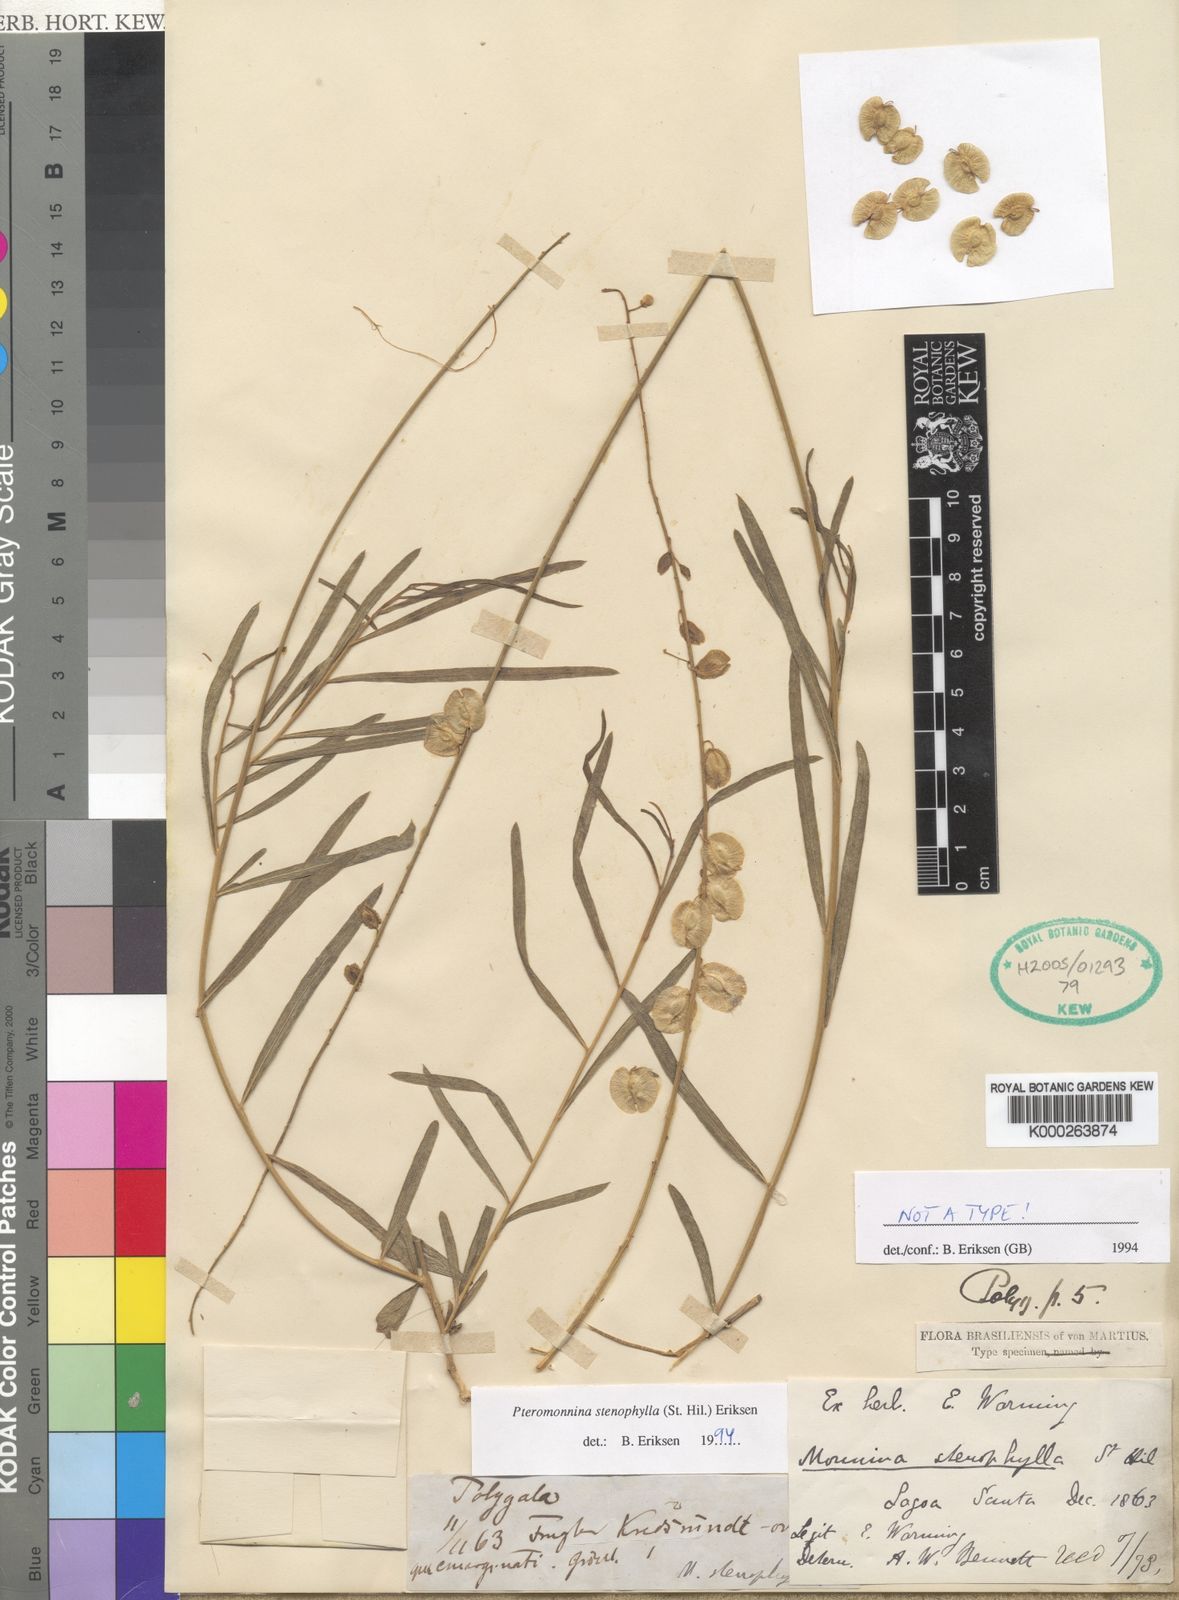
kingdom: Plantae
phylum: Tracheophyta
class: Magnoliopsida
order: Fabales
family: Polygalaceae
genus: Monnina
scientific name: Monnina stenophylla
